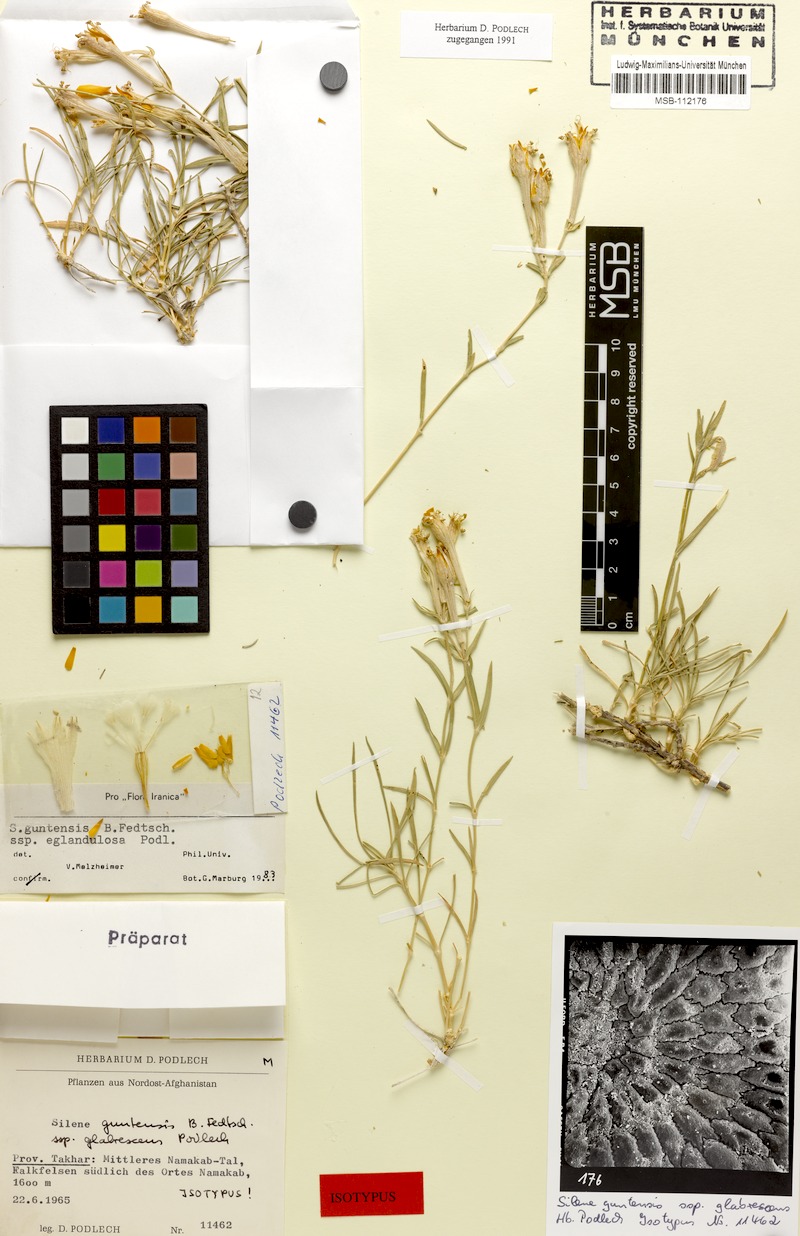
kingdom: Plantae
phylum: Tracheophyta
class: Magnoliopsida
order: Caryophyllales
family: Caryophyllaceae
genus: Silene
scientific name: Silene kuschakewiczii
